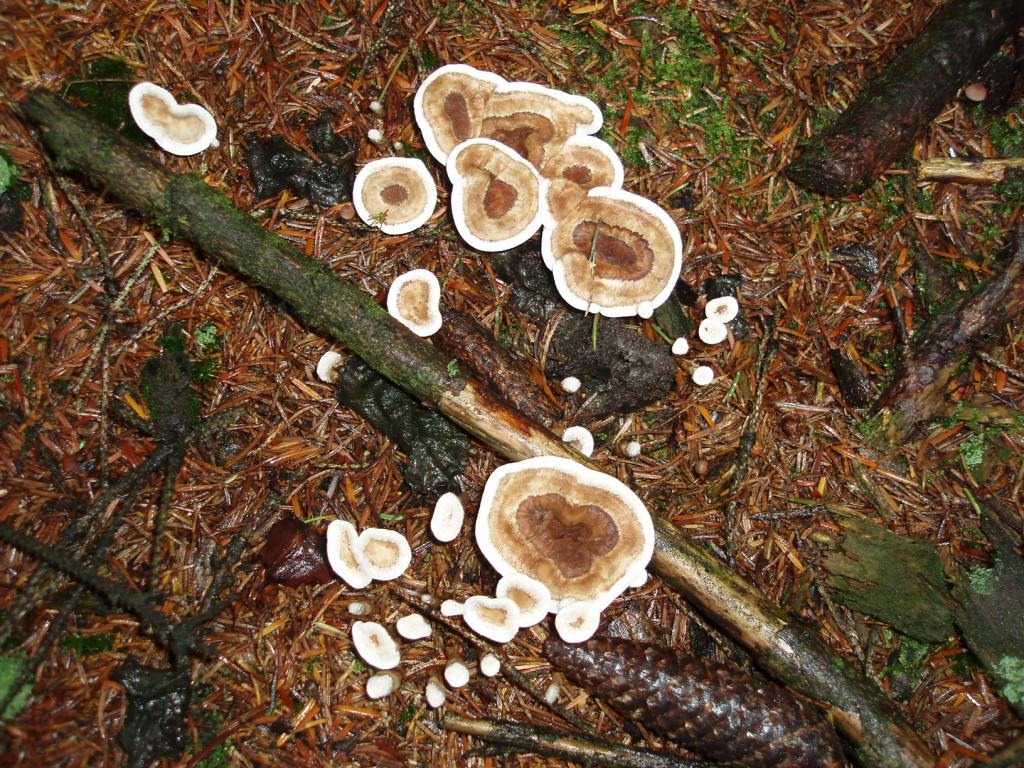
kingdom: Fungi
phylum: Basidiomycota
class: Agaricomycetes
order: Thelephorales
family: Thelephoraceae
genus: Phellodon
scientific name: Phellodon tomentosus
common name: tragtformet duftpigsvamp
